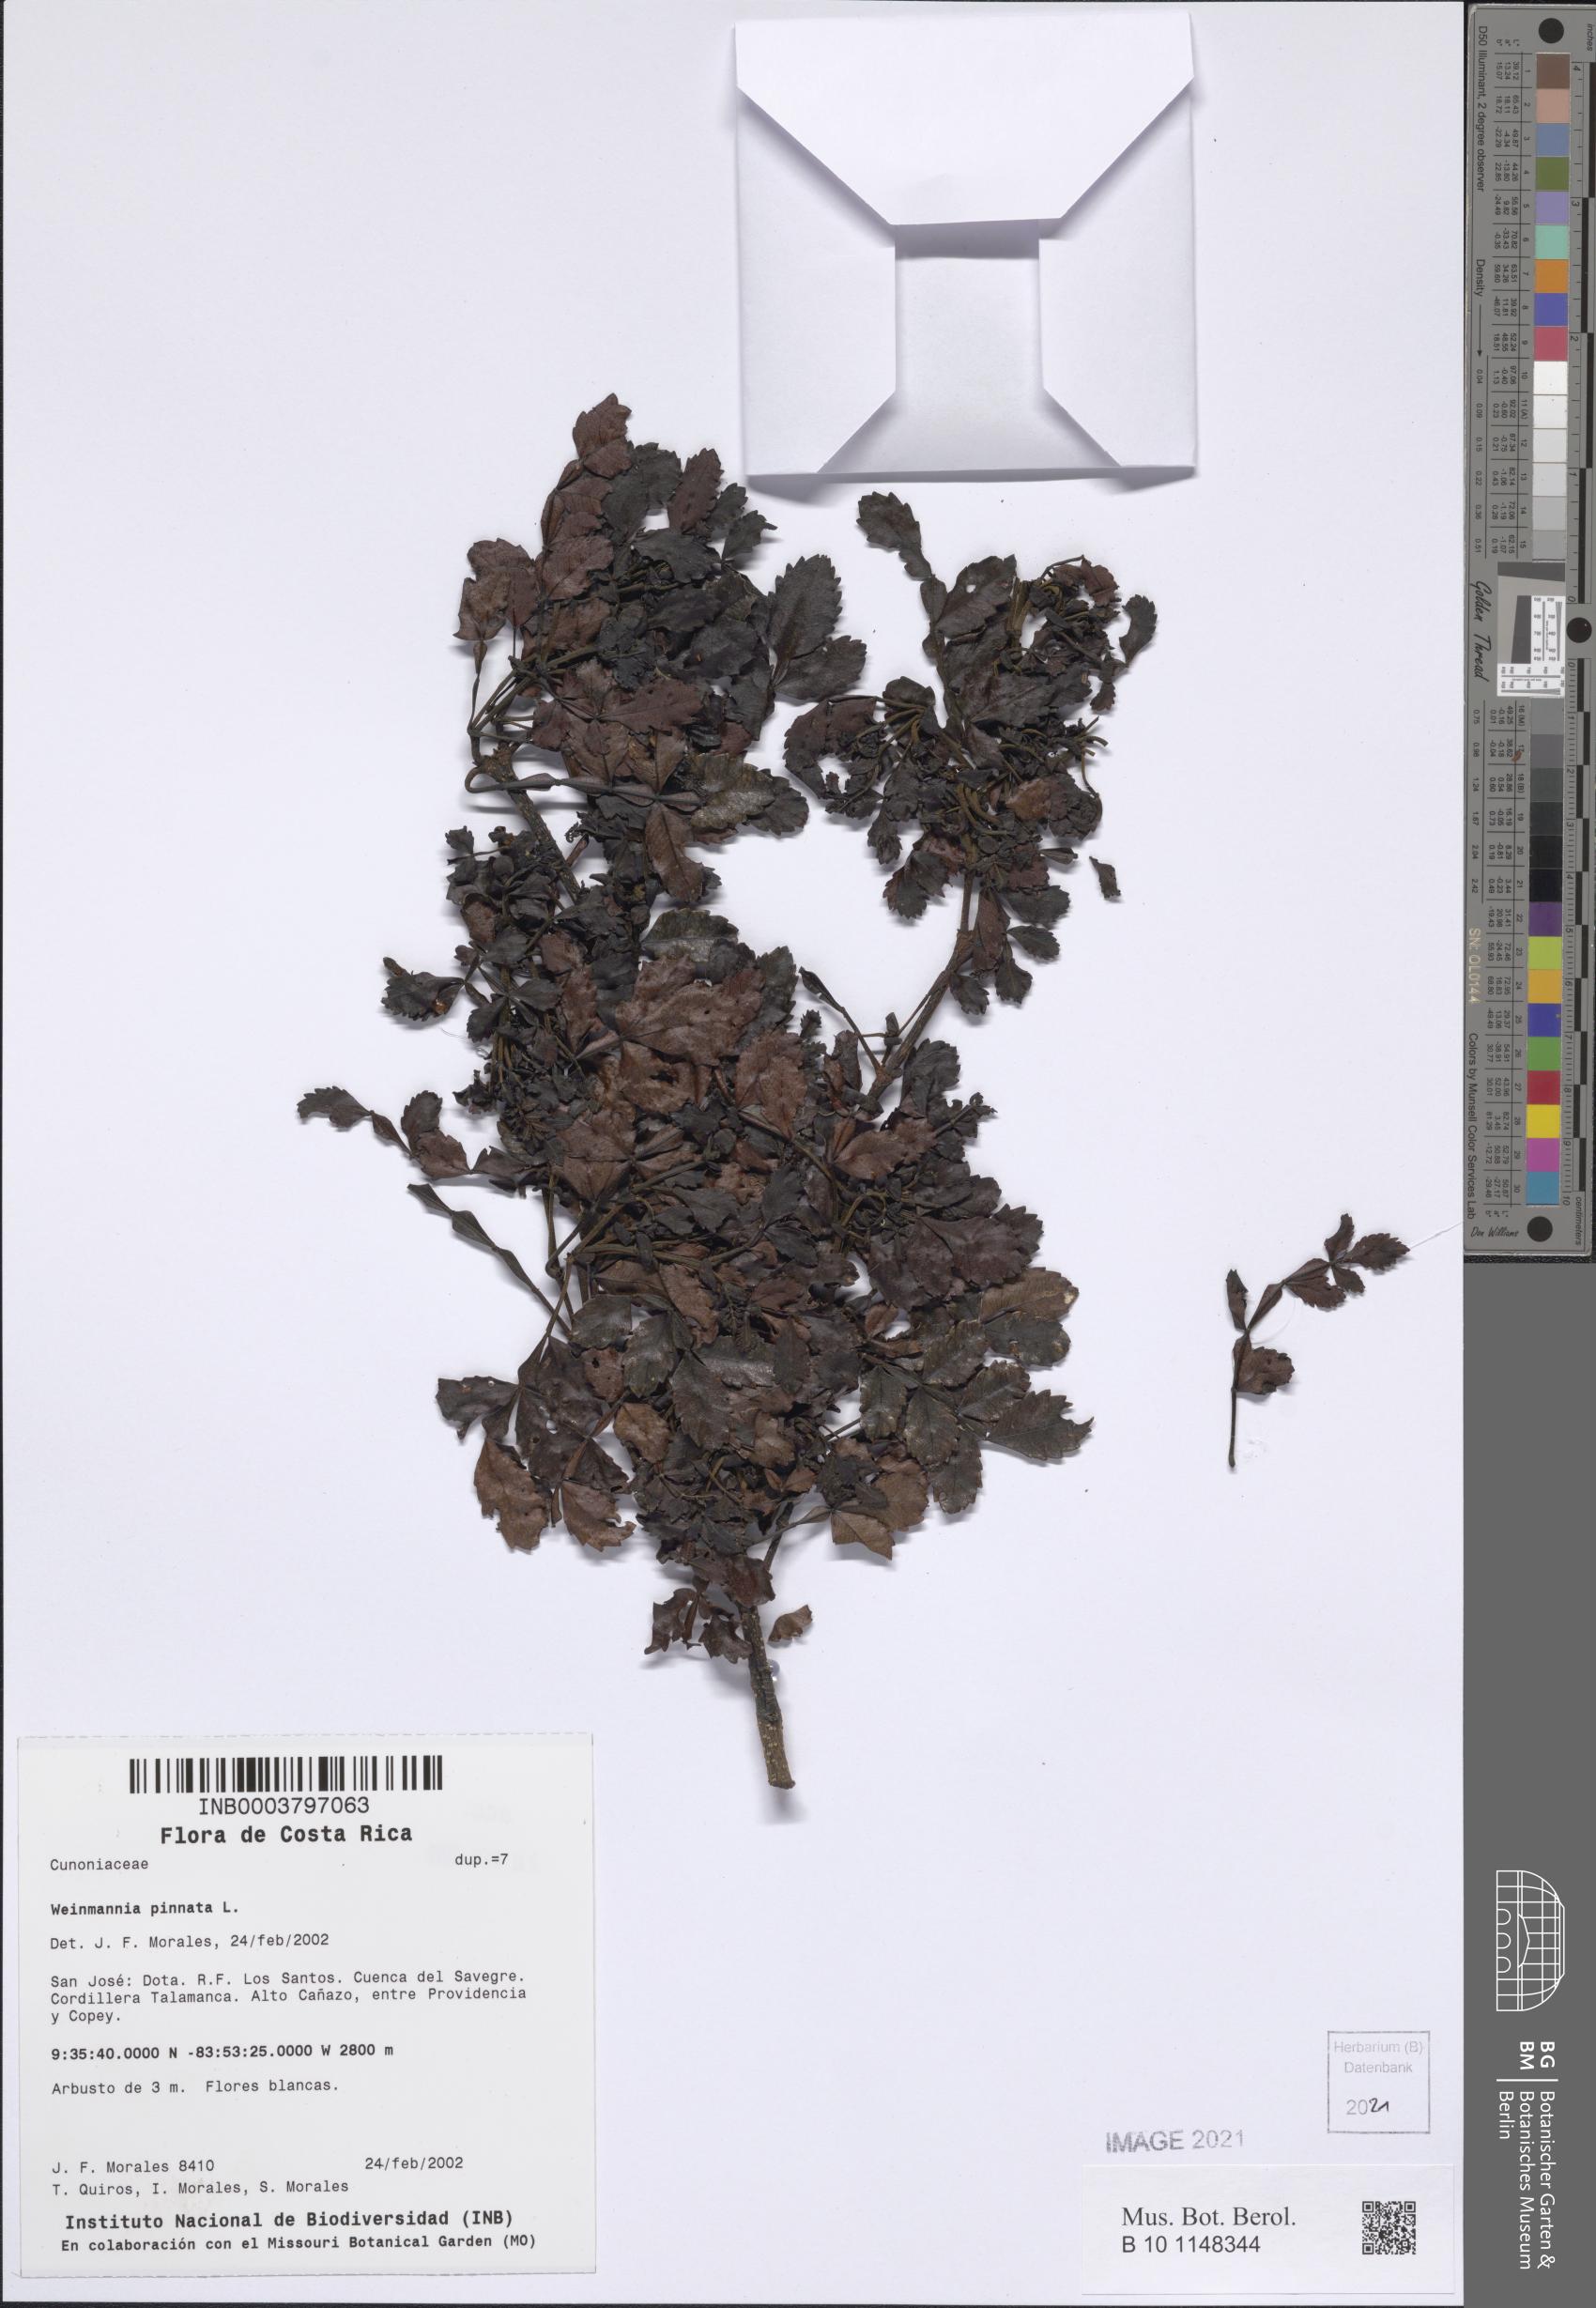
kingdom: Plantae
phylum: Tracheophyta
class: Magnoliopsida
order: Oxalidales
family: Cunoniaceae
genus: Weinmannia
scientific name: Weinmannia pinnata
